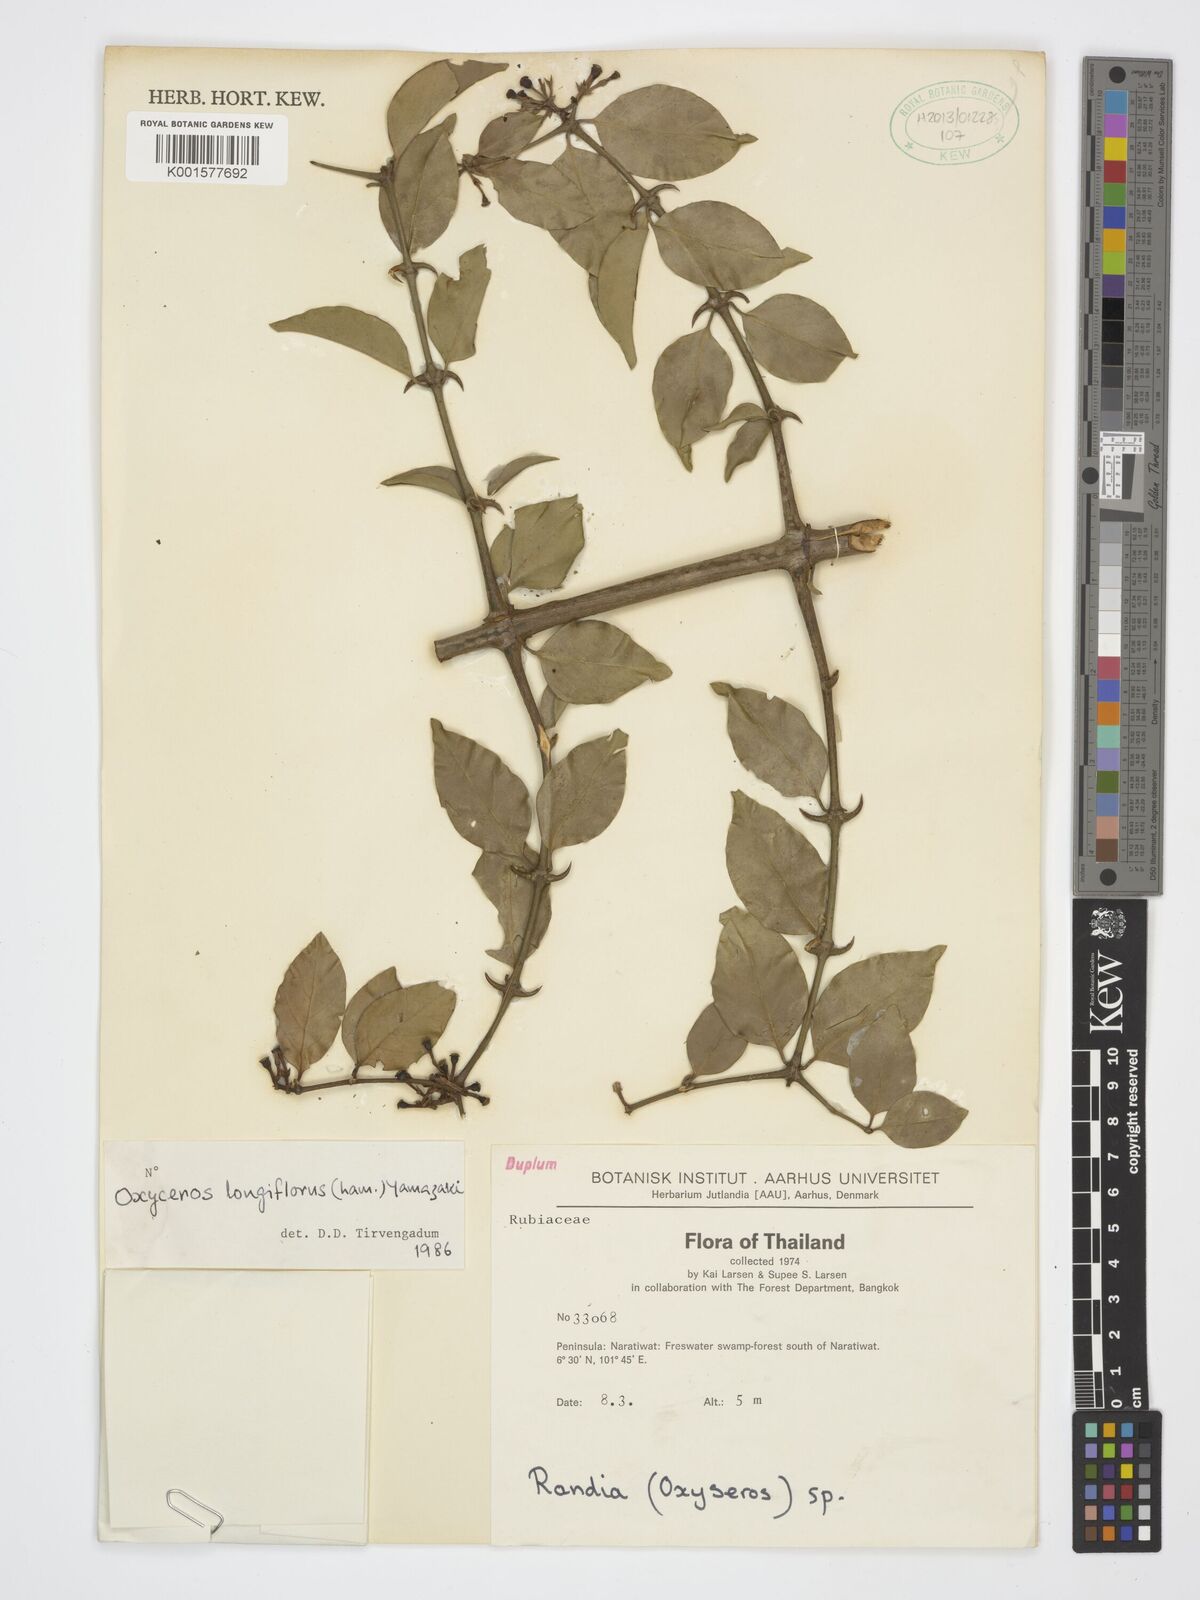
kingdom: Plantae
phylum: Tracheophyta
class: Magnoliopsida
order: Gentianales
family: Rubiaceae
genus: Oxyceros
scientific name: Oxyceros longiflorus
